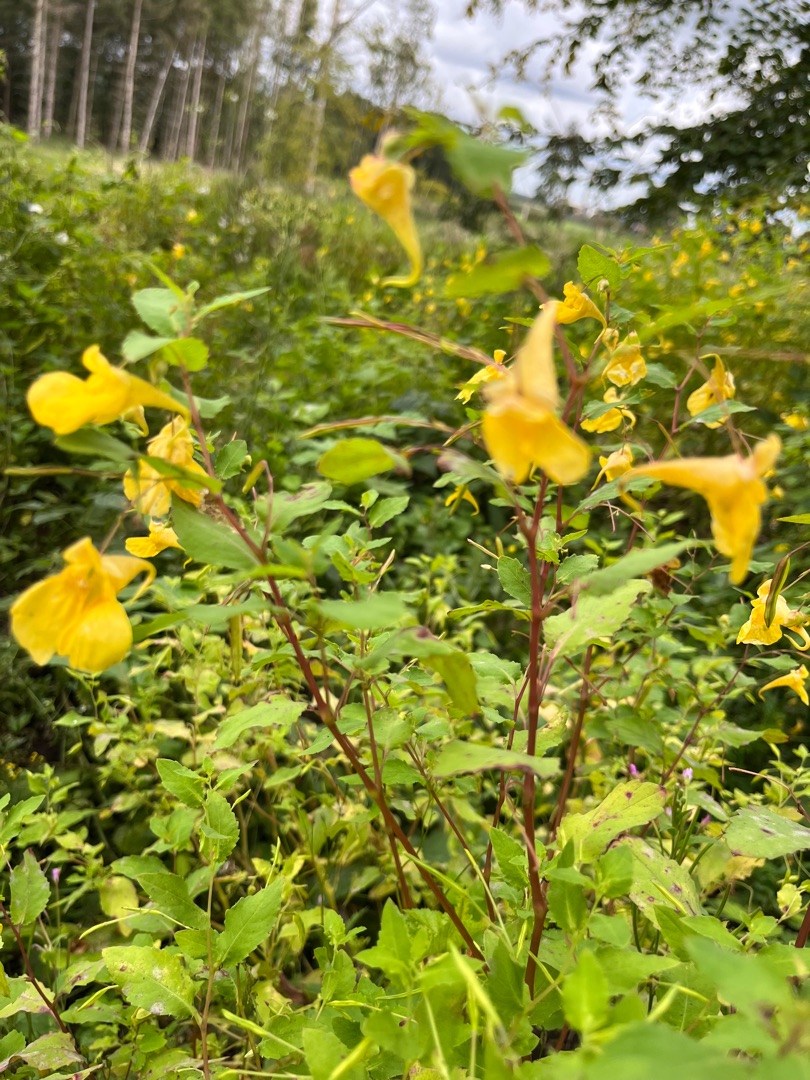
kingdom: Plantae
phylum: Tracheophyta
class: Magnoliopsida
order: Ericales
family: Balsaminaceae
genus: Impatiens
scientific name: Impatiens noli-tangere
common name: Spring-balsamin
